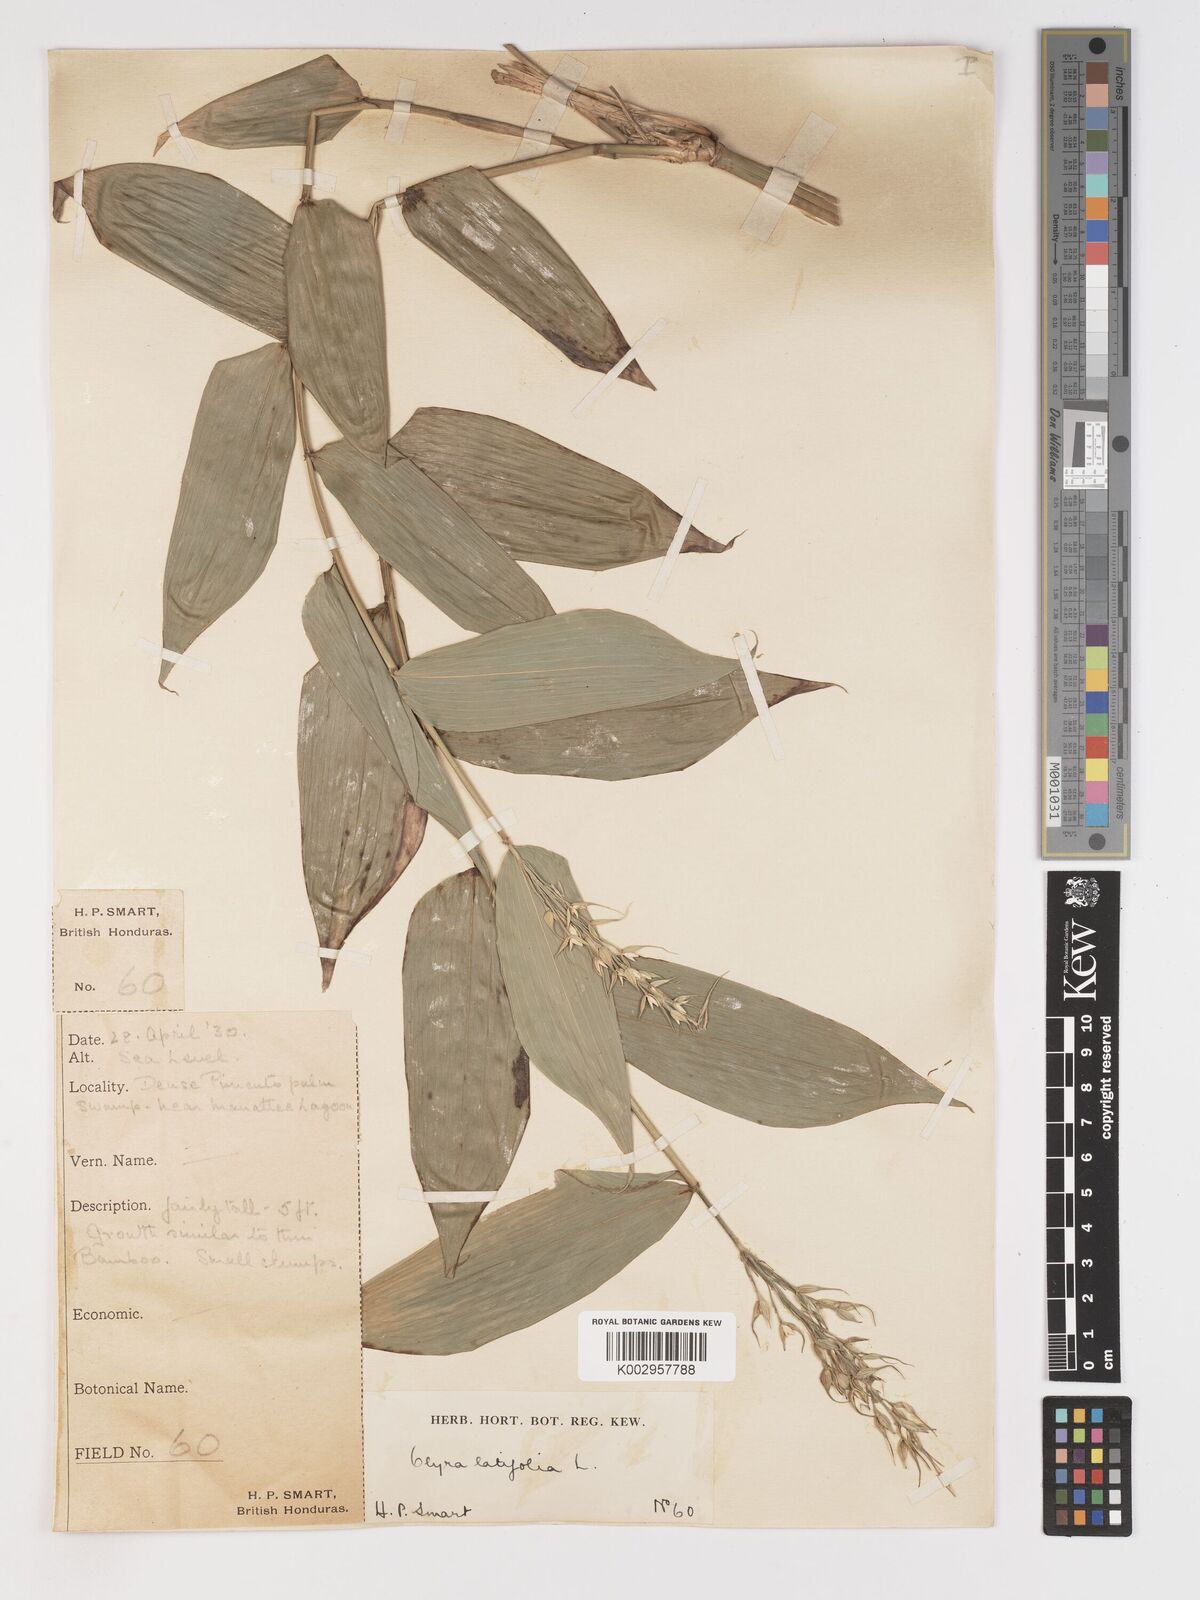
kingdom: Plantae
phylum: Tracheophyta
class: Liliopsida
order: Poales
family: Poaceae
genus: Olyra
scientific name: Olyra latifolia
